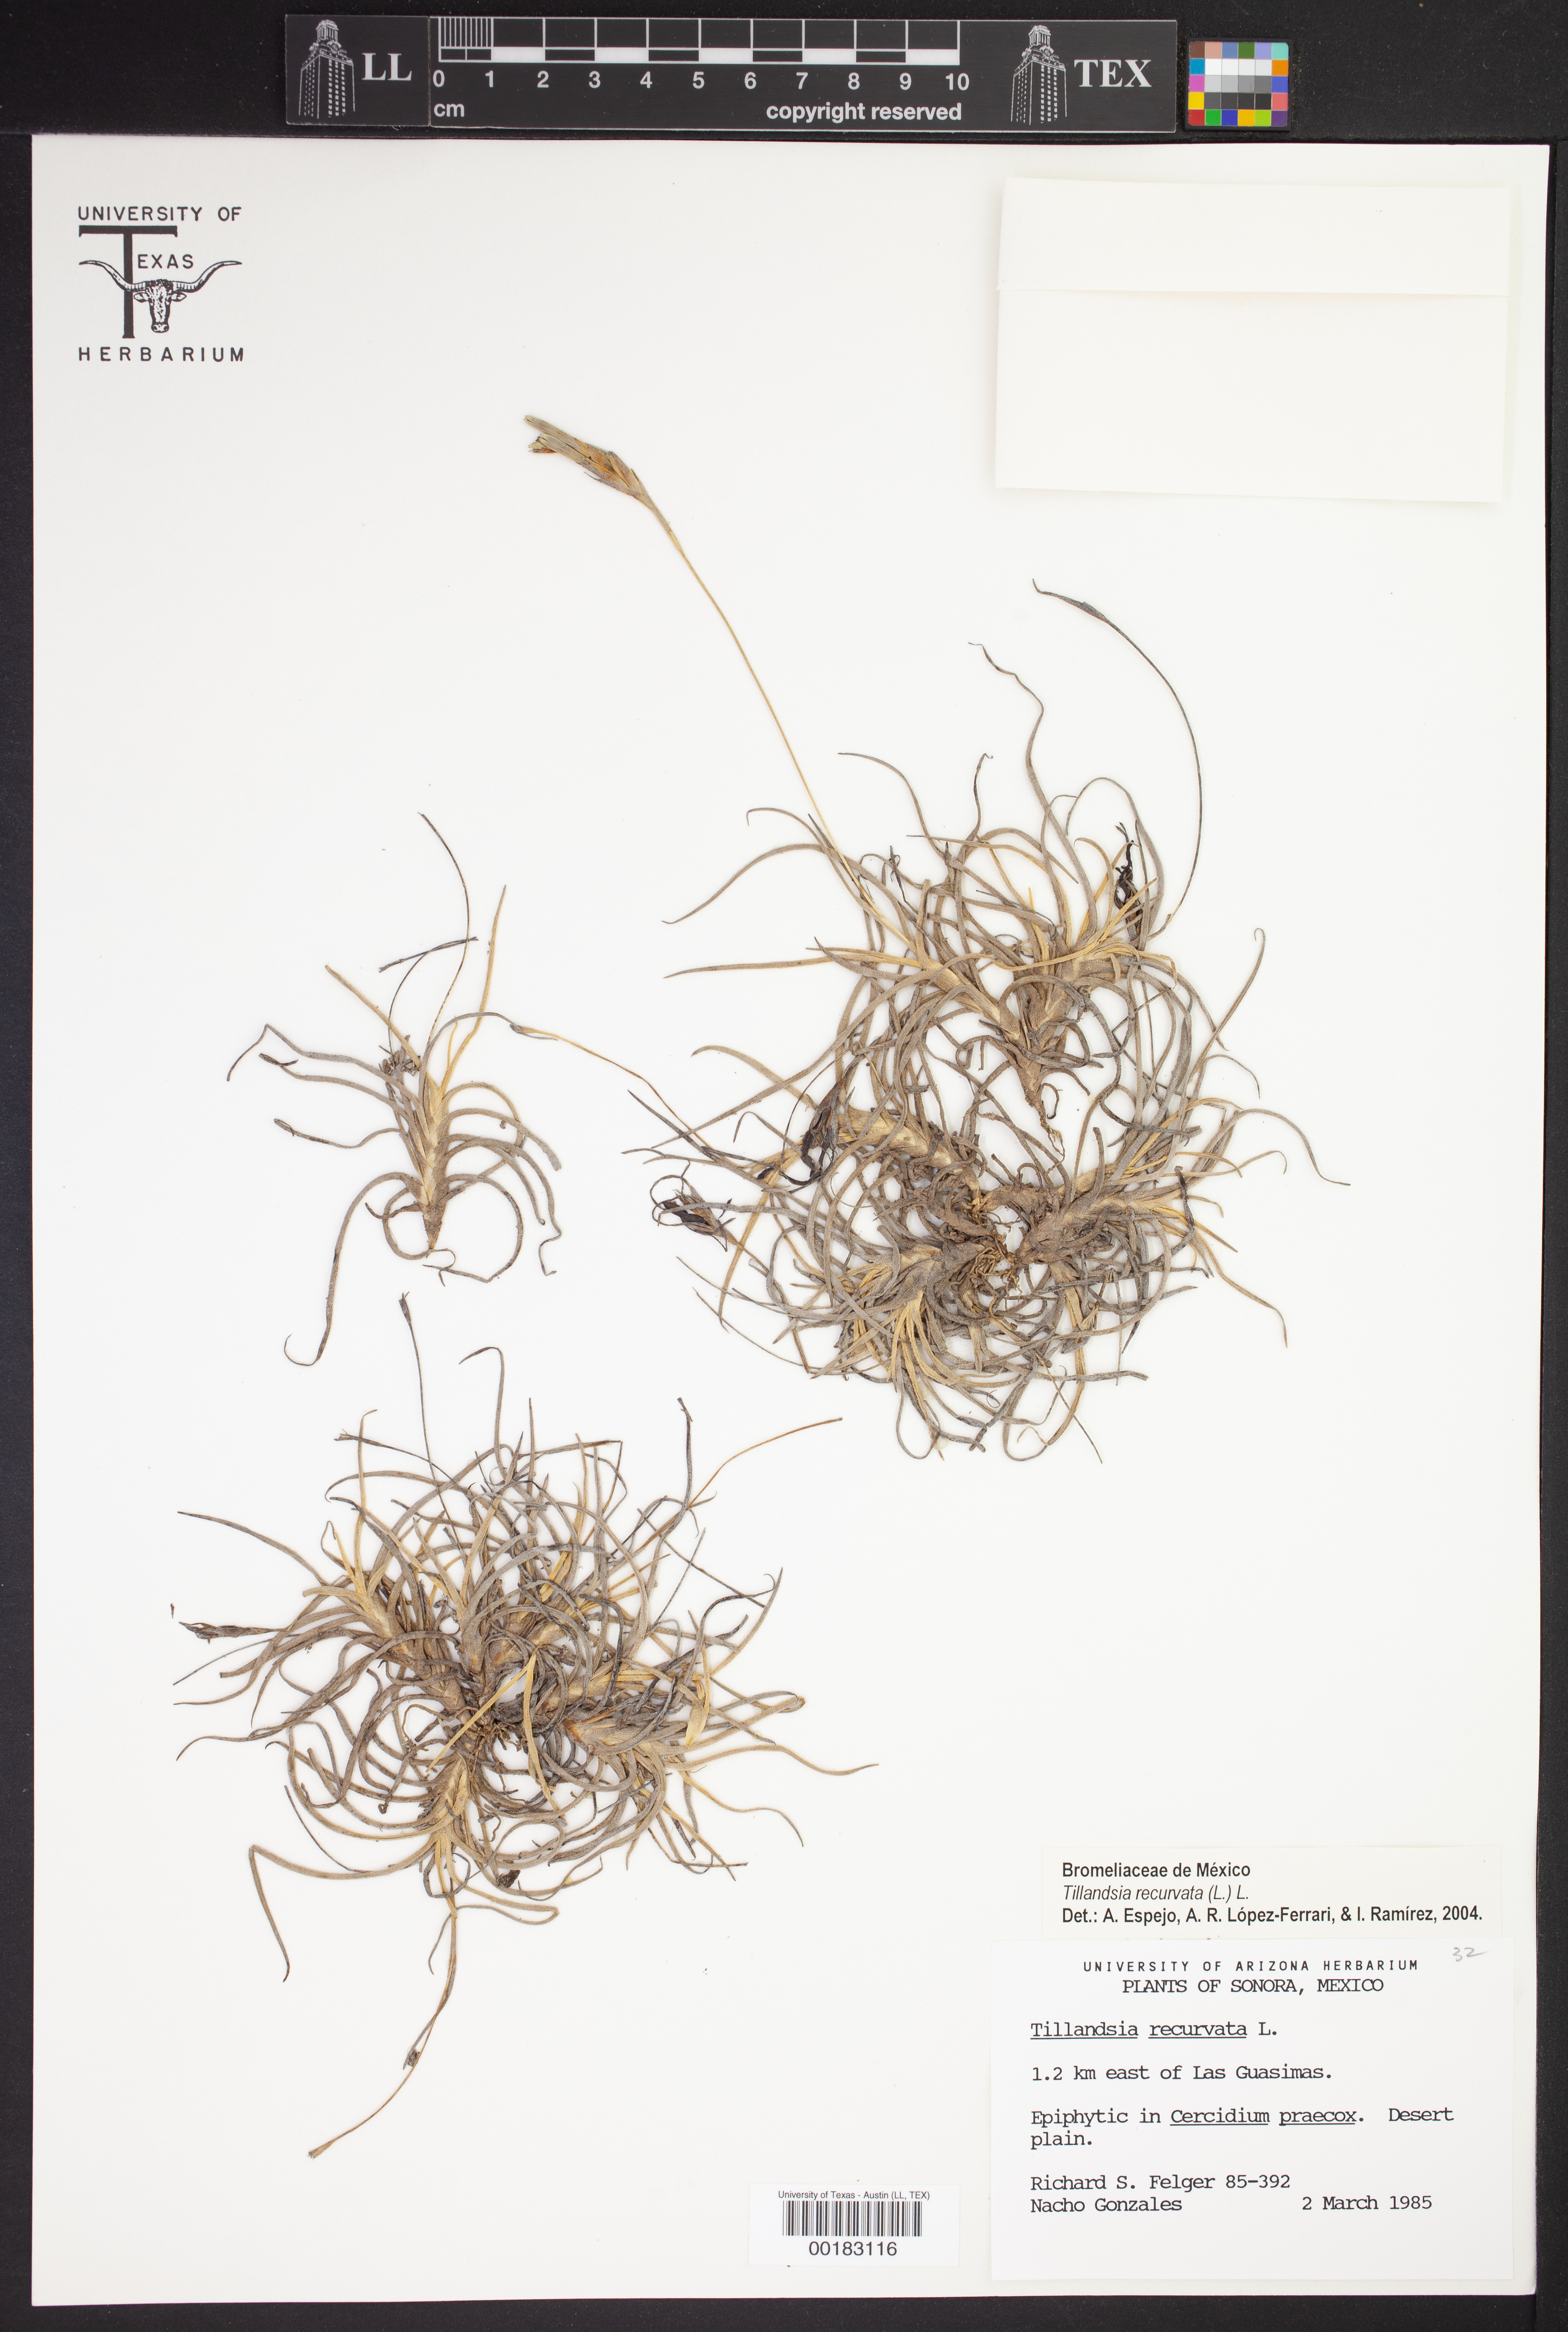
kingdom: Plantae
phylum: Tracheophyta
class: Liliopsida
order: Poales
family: Bromeliaceae
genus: Tillandsia
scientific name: Tillandsia recurvata
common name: Small ballmoss
